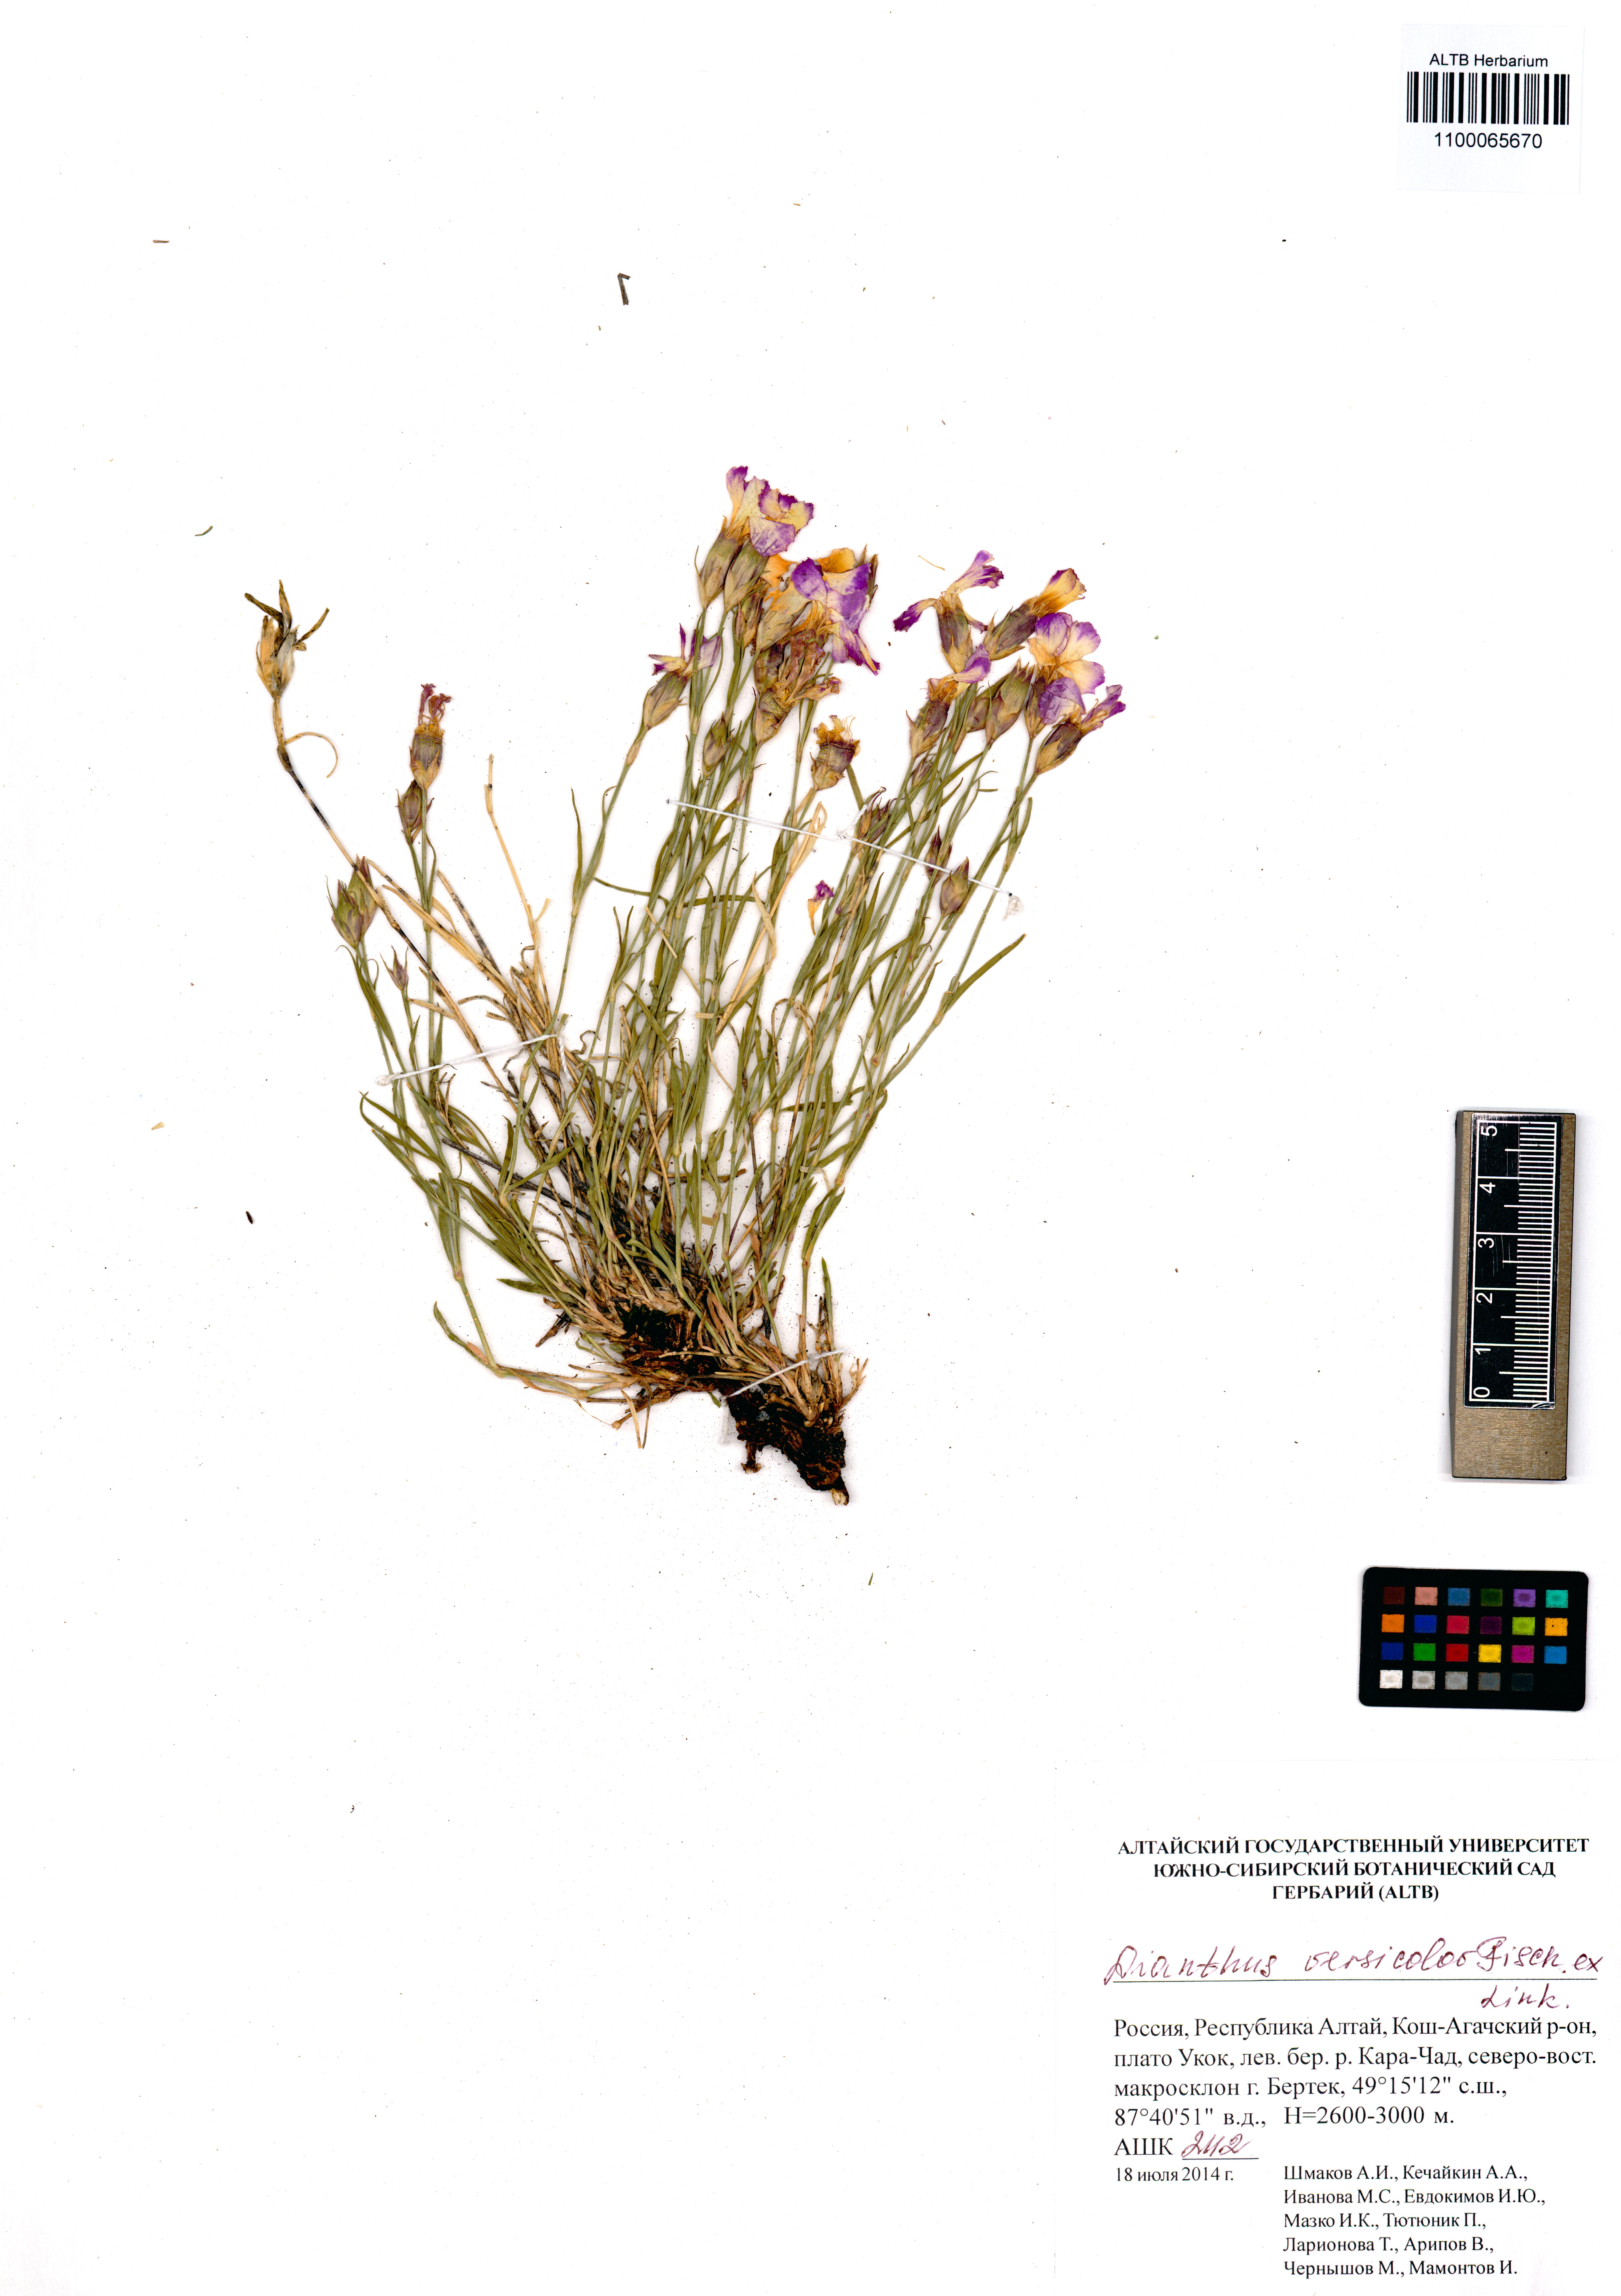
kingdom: Plantae
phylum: Tracheophyta
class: Magnoliopsida
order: Caryophyllales
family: Caryophyllaceae
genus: Dianthus
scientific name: Dianthus chinensis
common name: Rainbow pink
